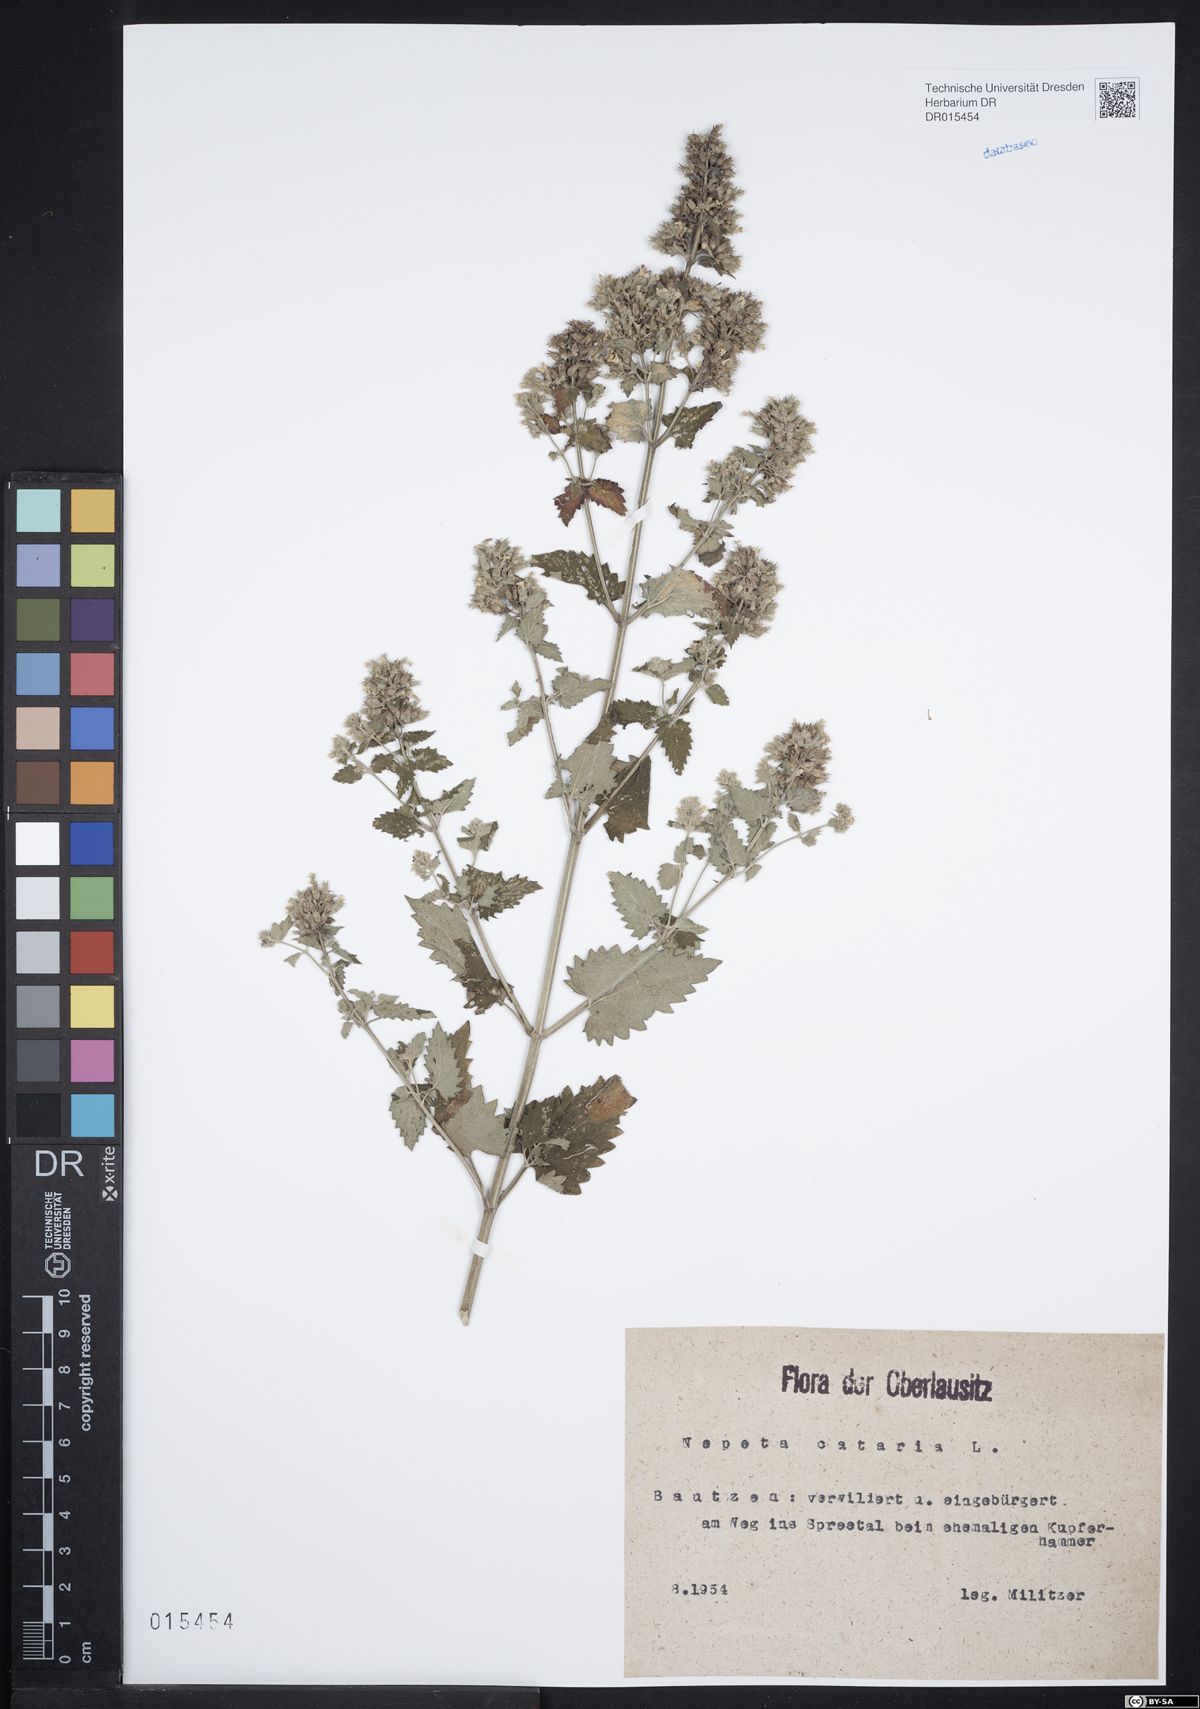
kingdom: Plantae
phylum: Tracheophyta
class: Magnoliopsida
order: Lamiales
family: Lamiaceae
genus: Nepeta
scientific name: Nepeta cataria
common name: Catnip
